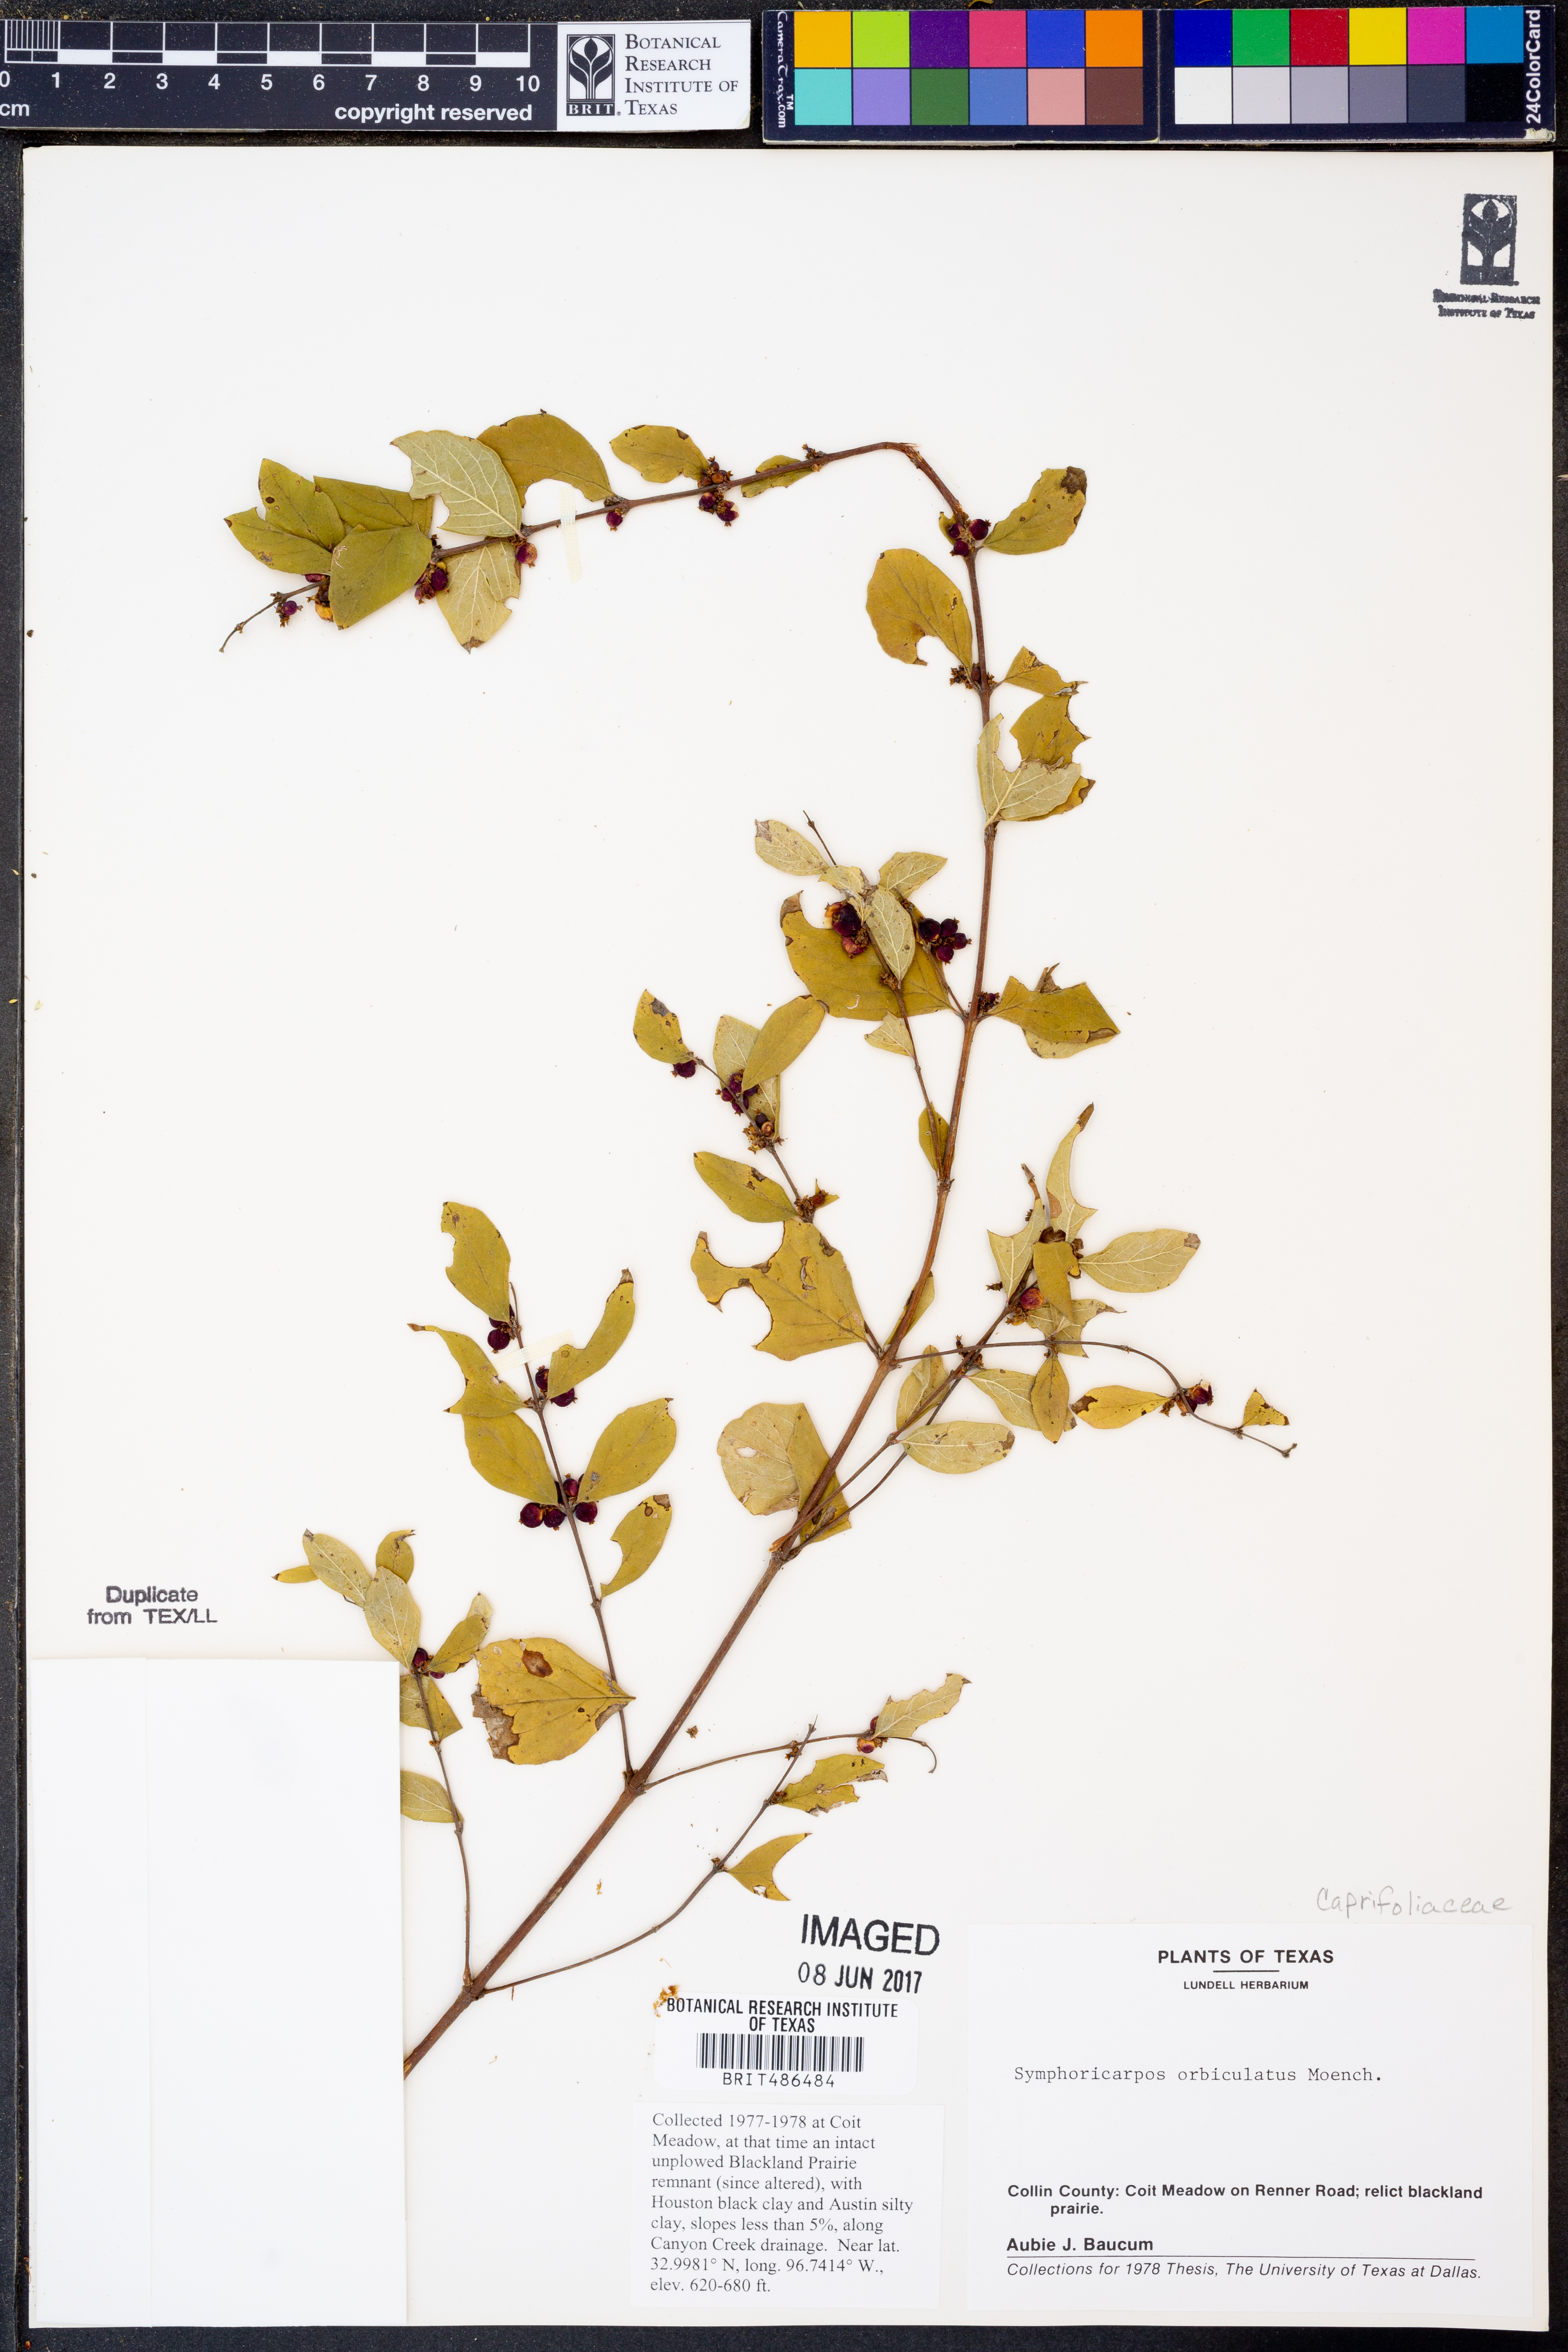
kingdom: Plantae
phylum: Tracheophyta
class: Magnoliopsida
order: Dipsacales
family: Caprifoliaceae
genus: Symphoricarpos
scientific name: Symphoricarpos orbiculatus
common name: Coralberry
